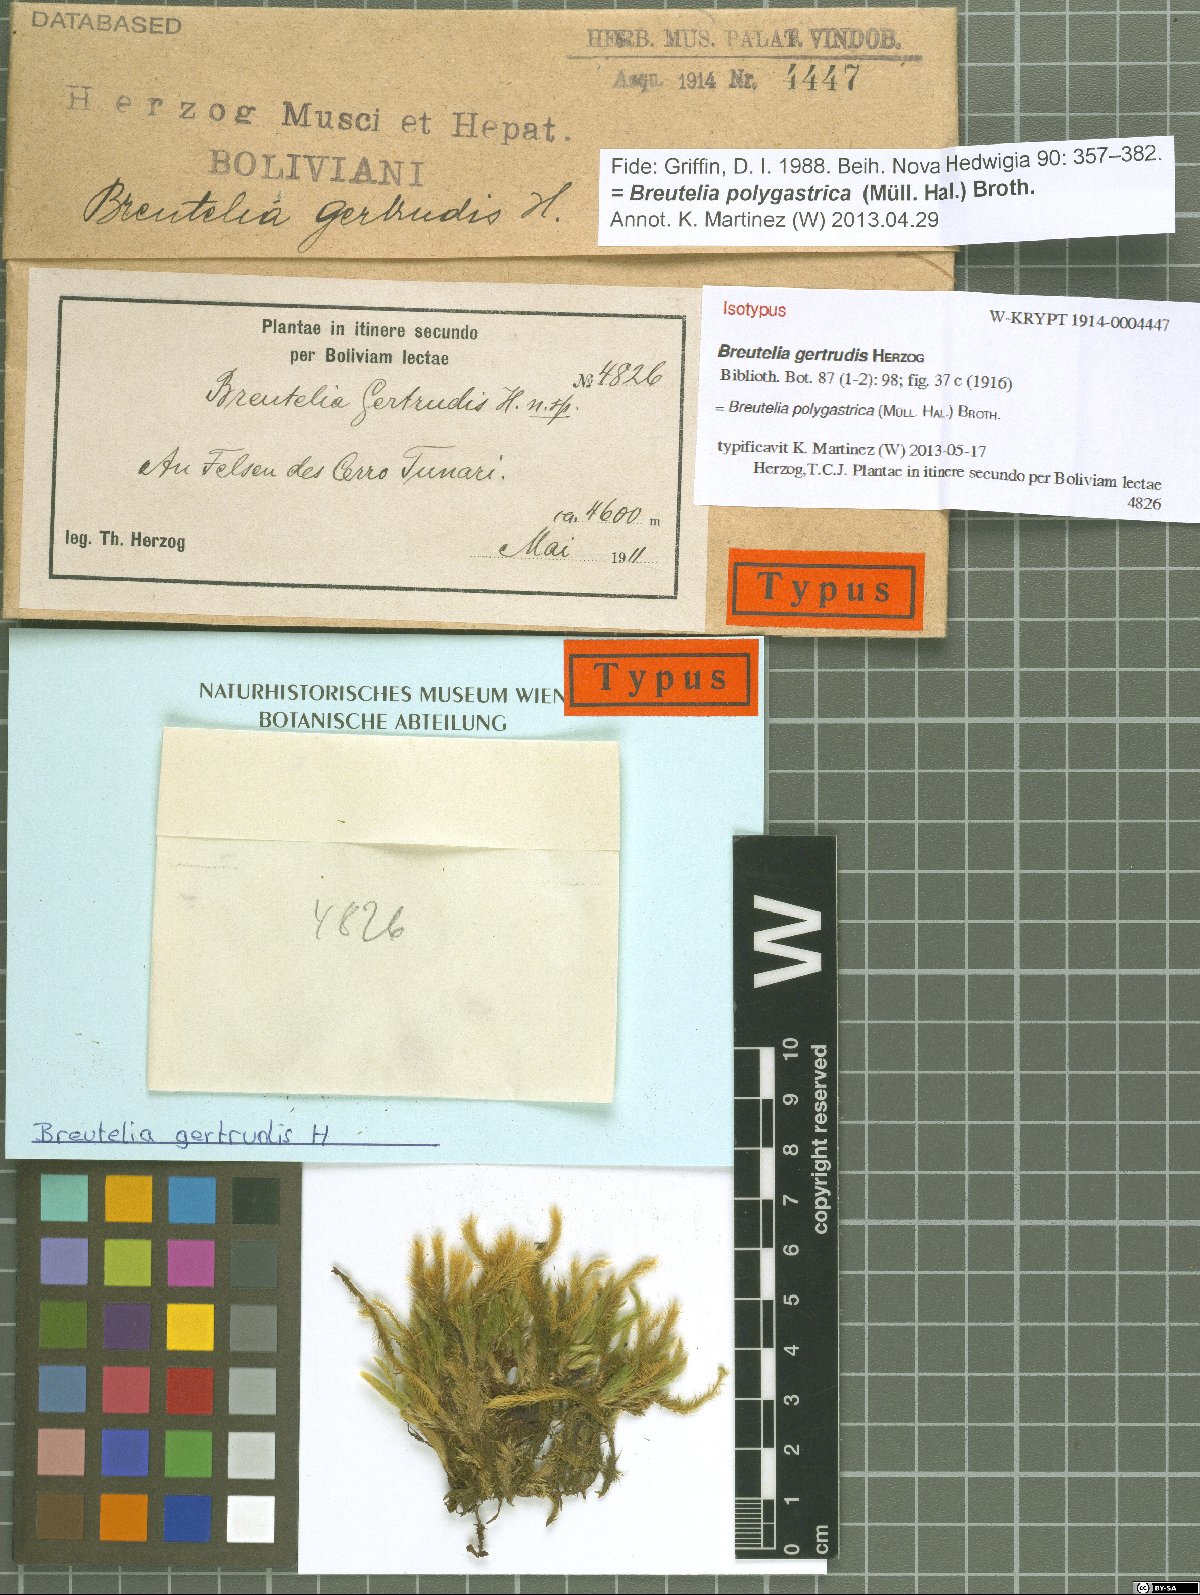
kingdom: Plantae
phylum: Bryophyta
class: Bryopsida
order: Bartramiales
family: Bartramiaceae
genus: Breutelia
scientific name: Breutelia polygastrica
